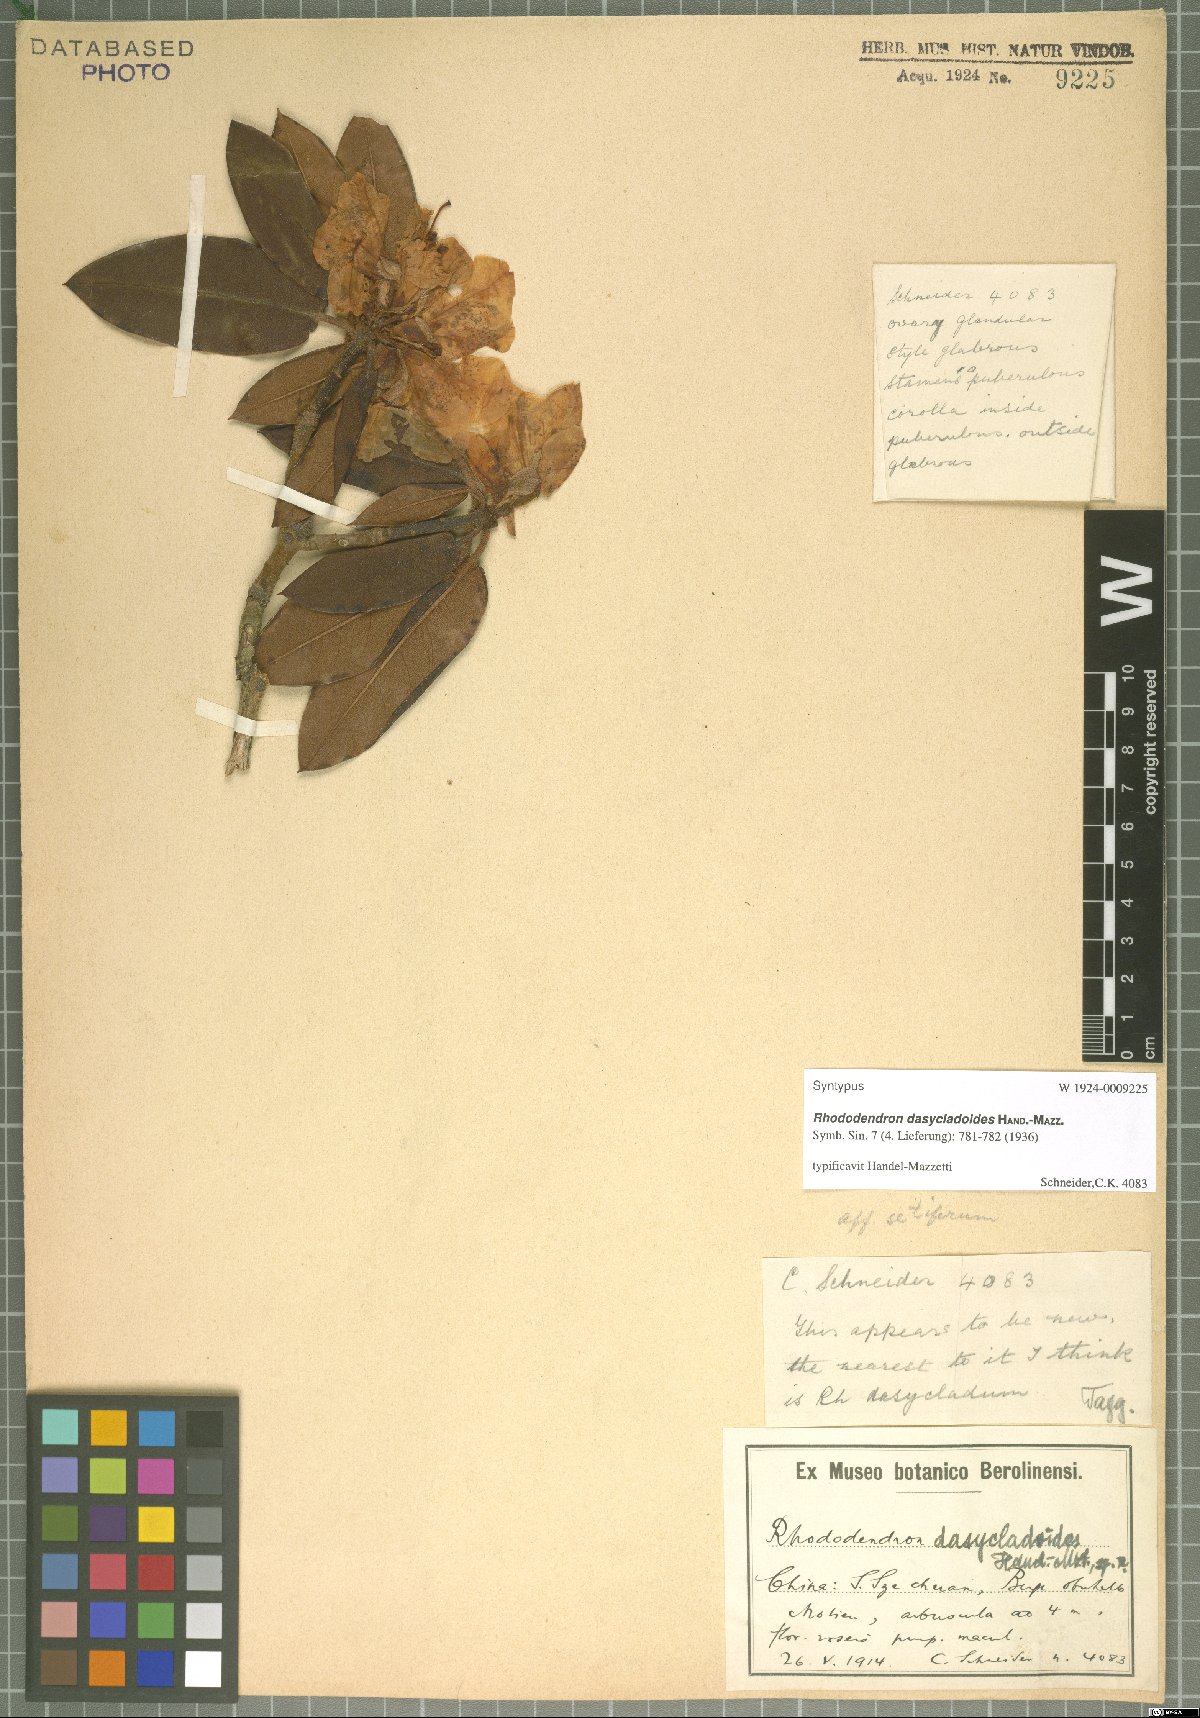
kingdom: Plantae
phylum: Tracheophyta
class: Magnoliopsida
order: Ericales
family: Ericaceae
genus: Rhododendron
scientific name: Rhododendron dasycladoides
